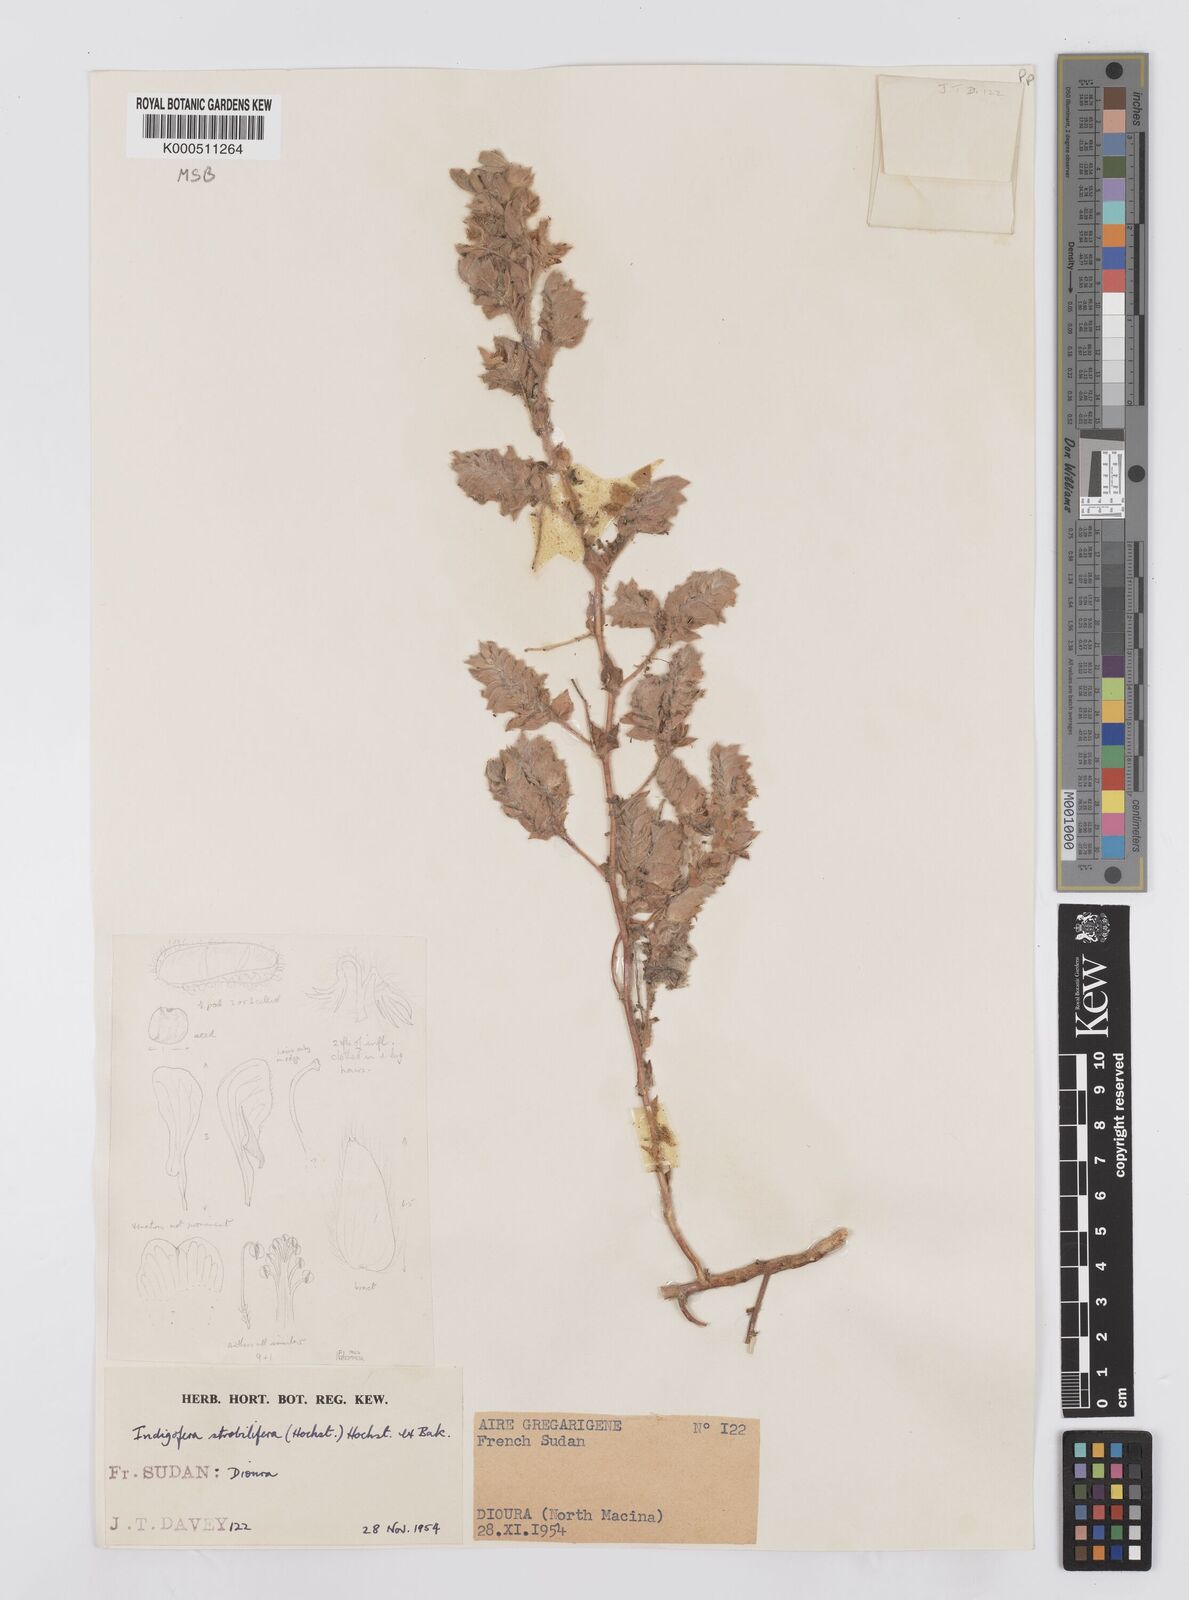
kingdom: Plantae
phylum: Tracheophyta
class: Magnoliopsida
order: Fabales
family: Fabaceae
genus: Indigofera
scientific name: Indigofera strobilifera
